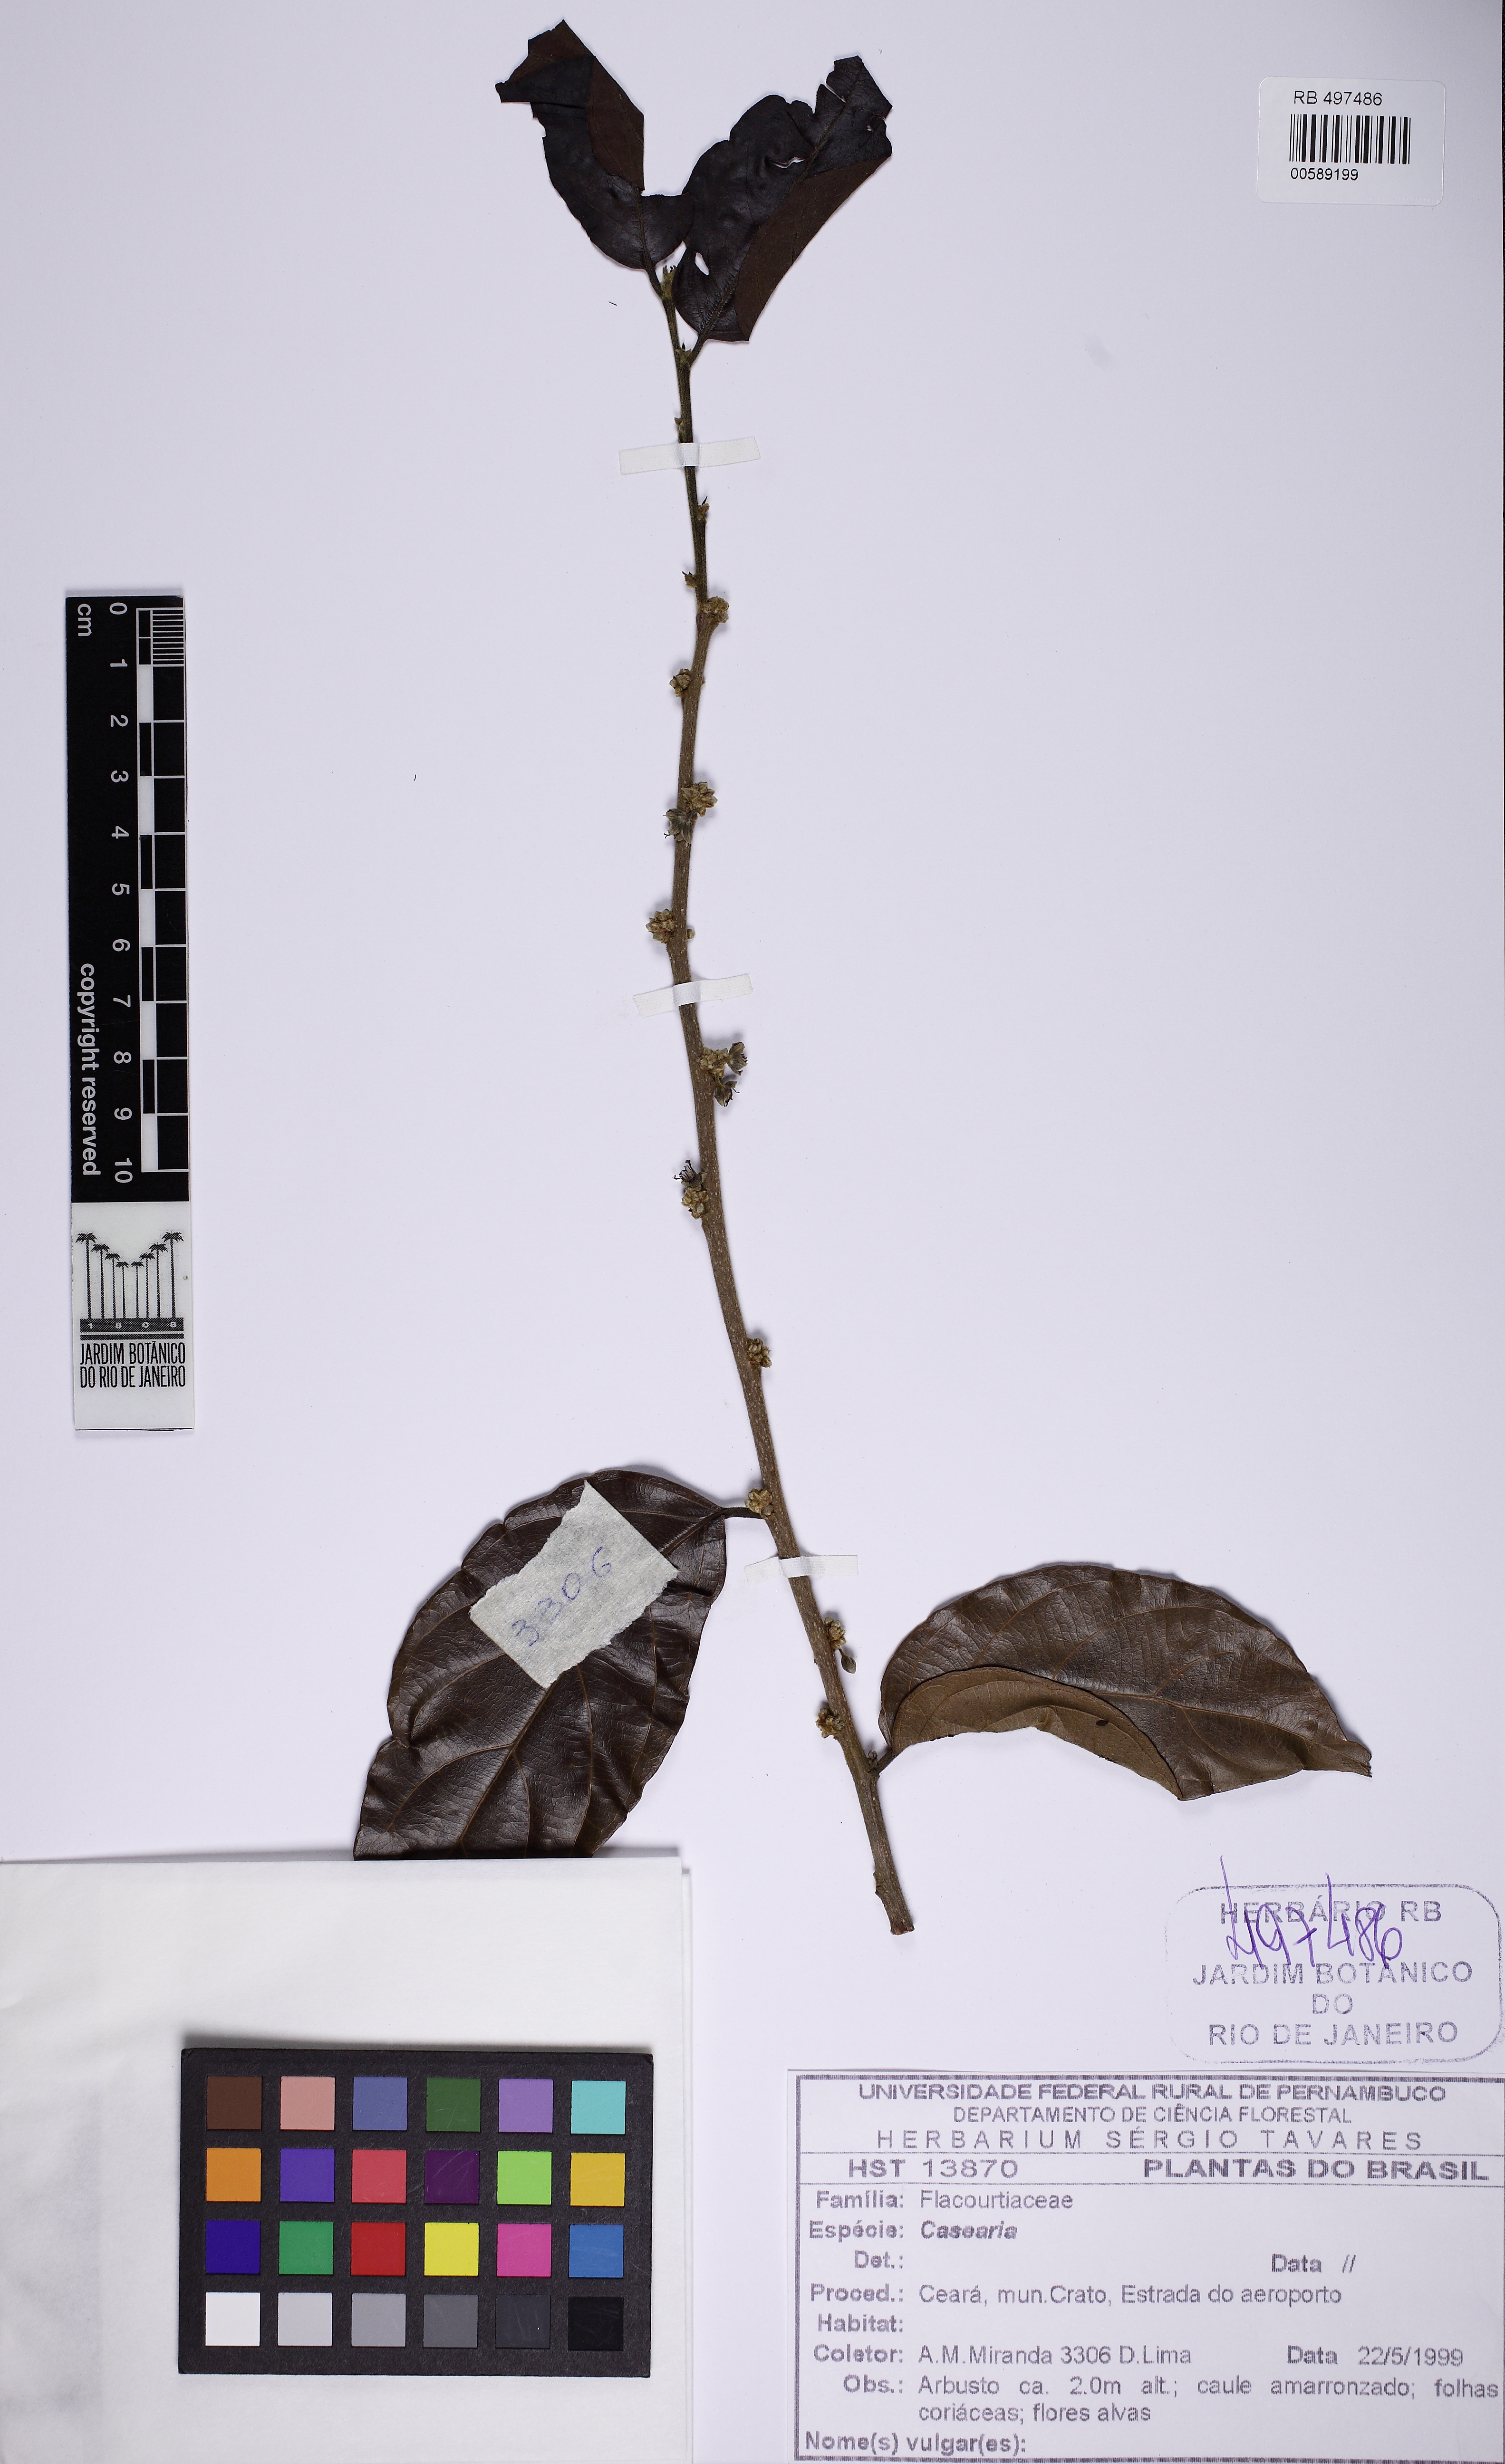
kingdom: Plantae
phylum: Tracheophyta
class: Magnoliopsida
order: Malpighiales
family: Salicaceae
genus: Piparea
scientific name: Piparea dentata
